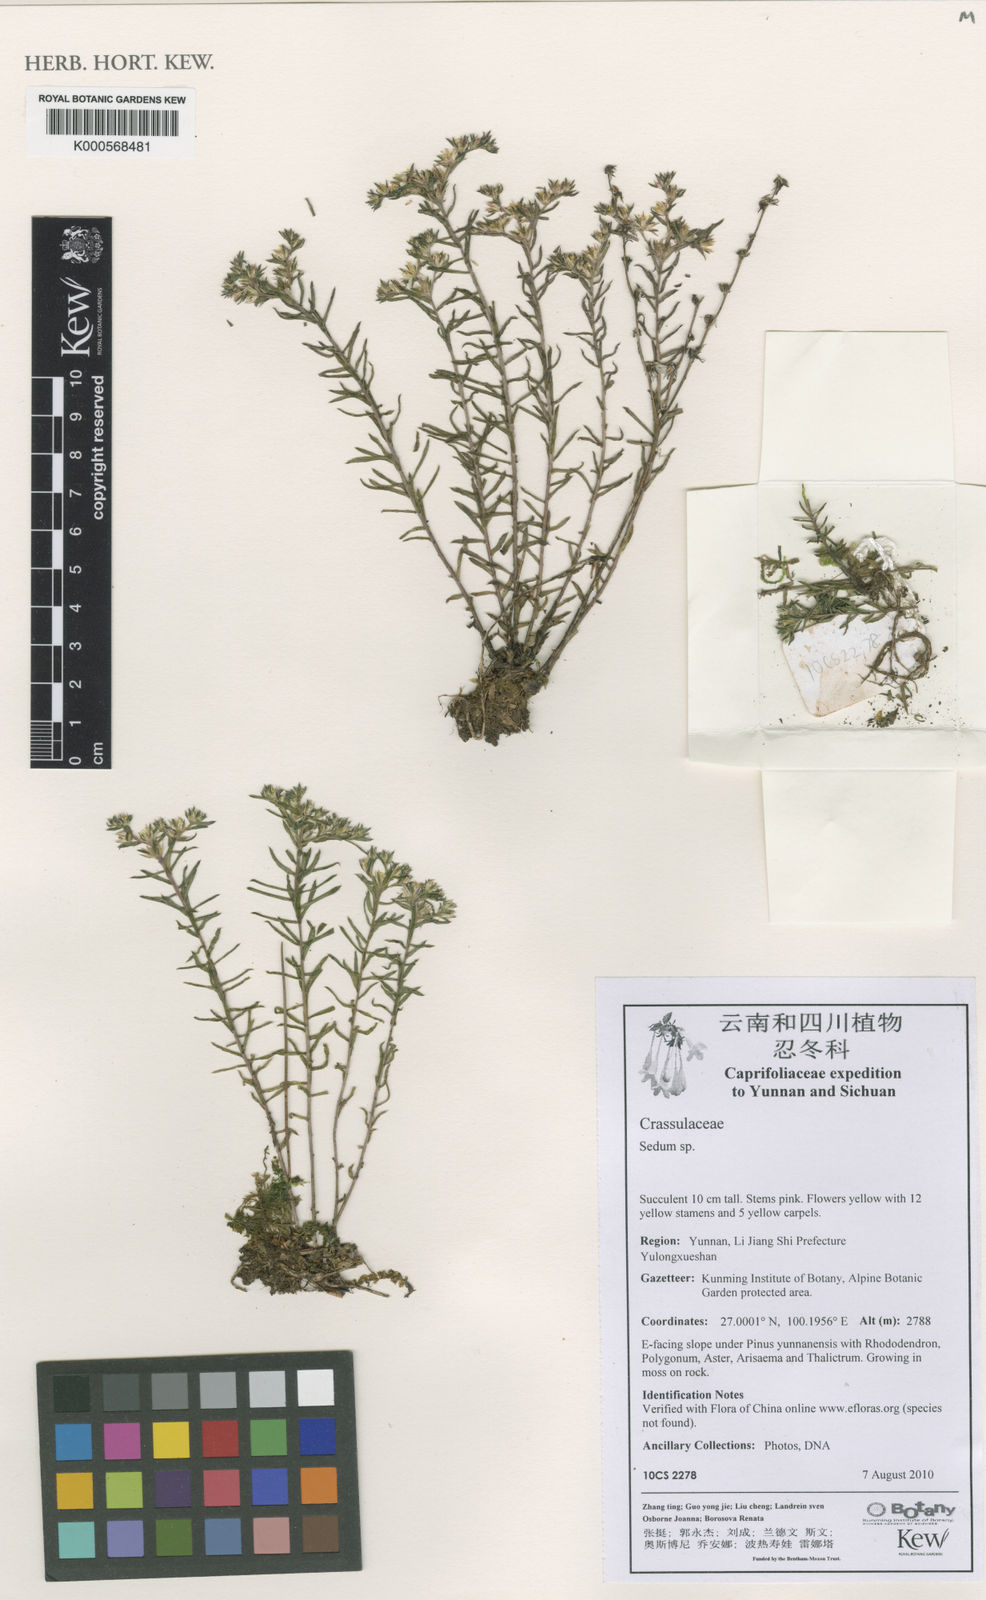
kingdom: Plantae
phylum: Tracheophyta
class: Magnoliopsida
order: Solanales
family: Solanaceae
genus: Solanum
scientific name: Solanum aculeatissimum
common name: Dutch eggplant
